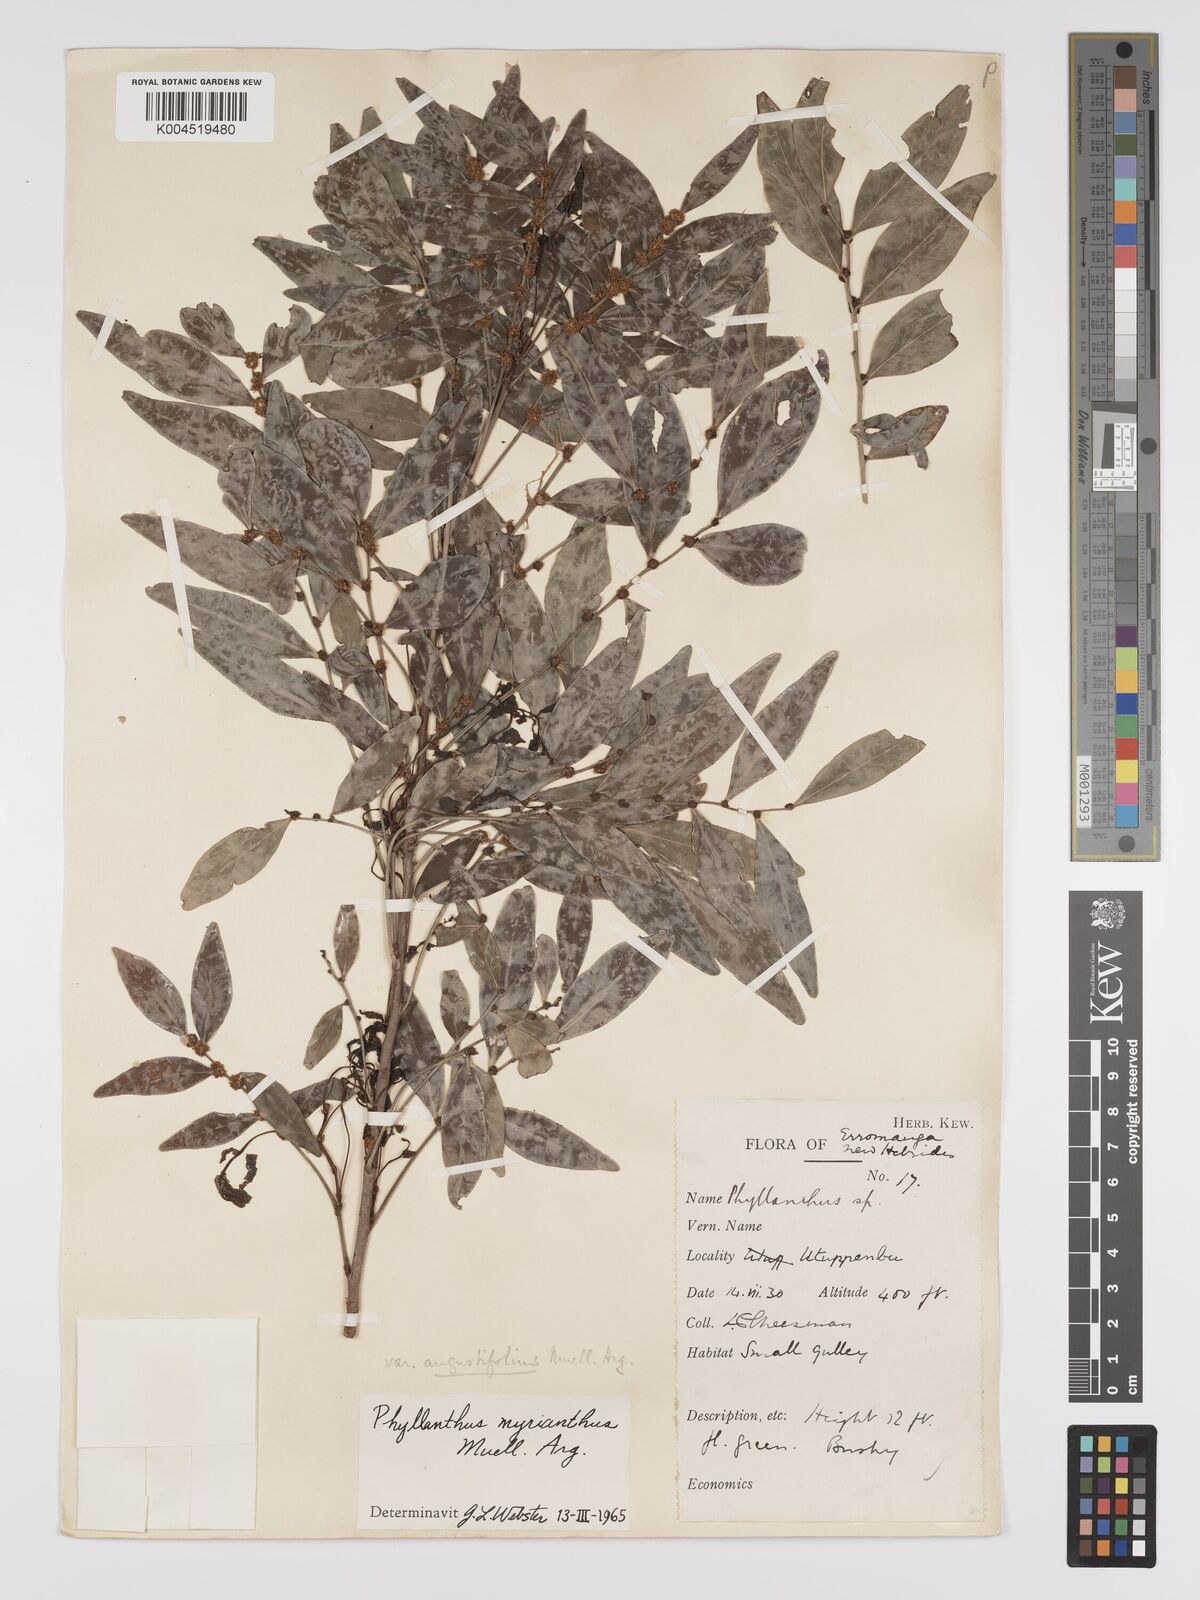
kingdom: Plantae
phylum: Tracheophyta
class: Magnoliopsida
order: Malpighiales
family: Phyllanthaceae
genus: Glochidion
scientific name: Glochidion myrianthum
